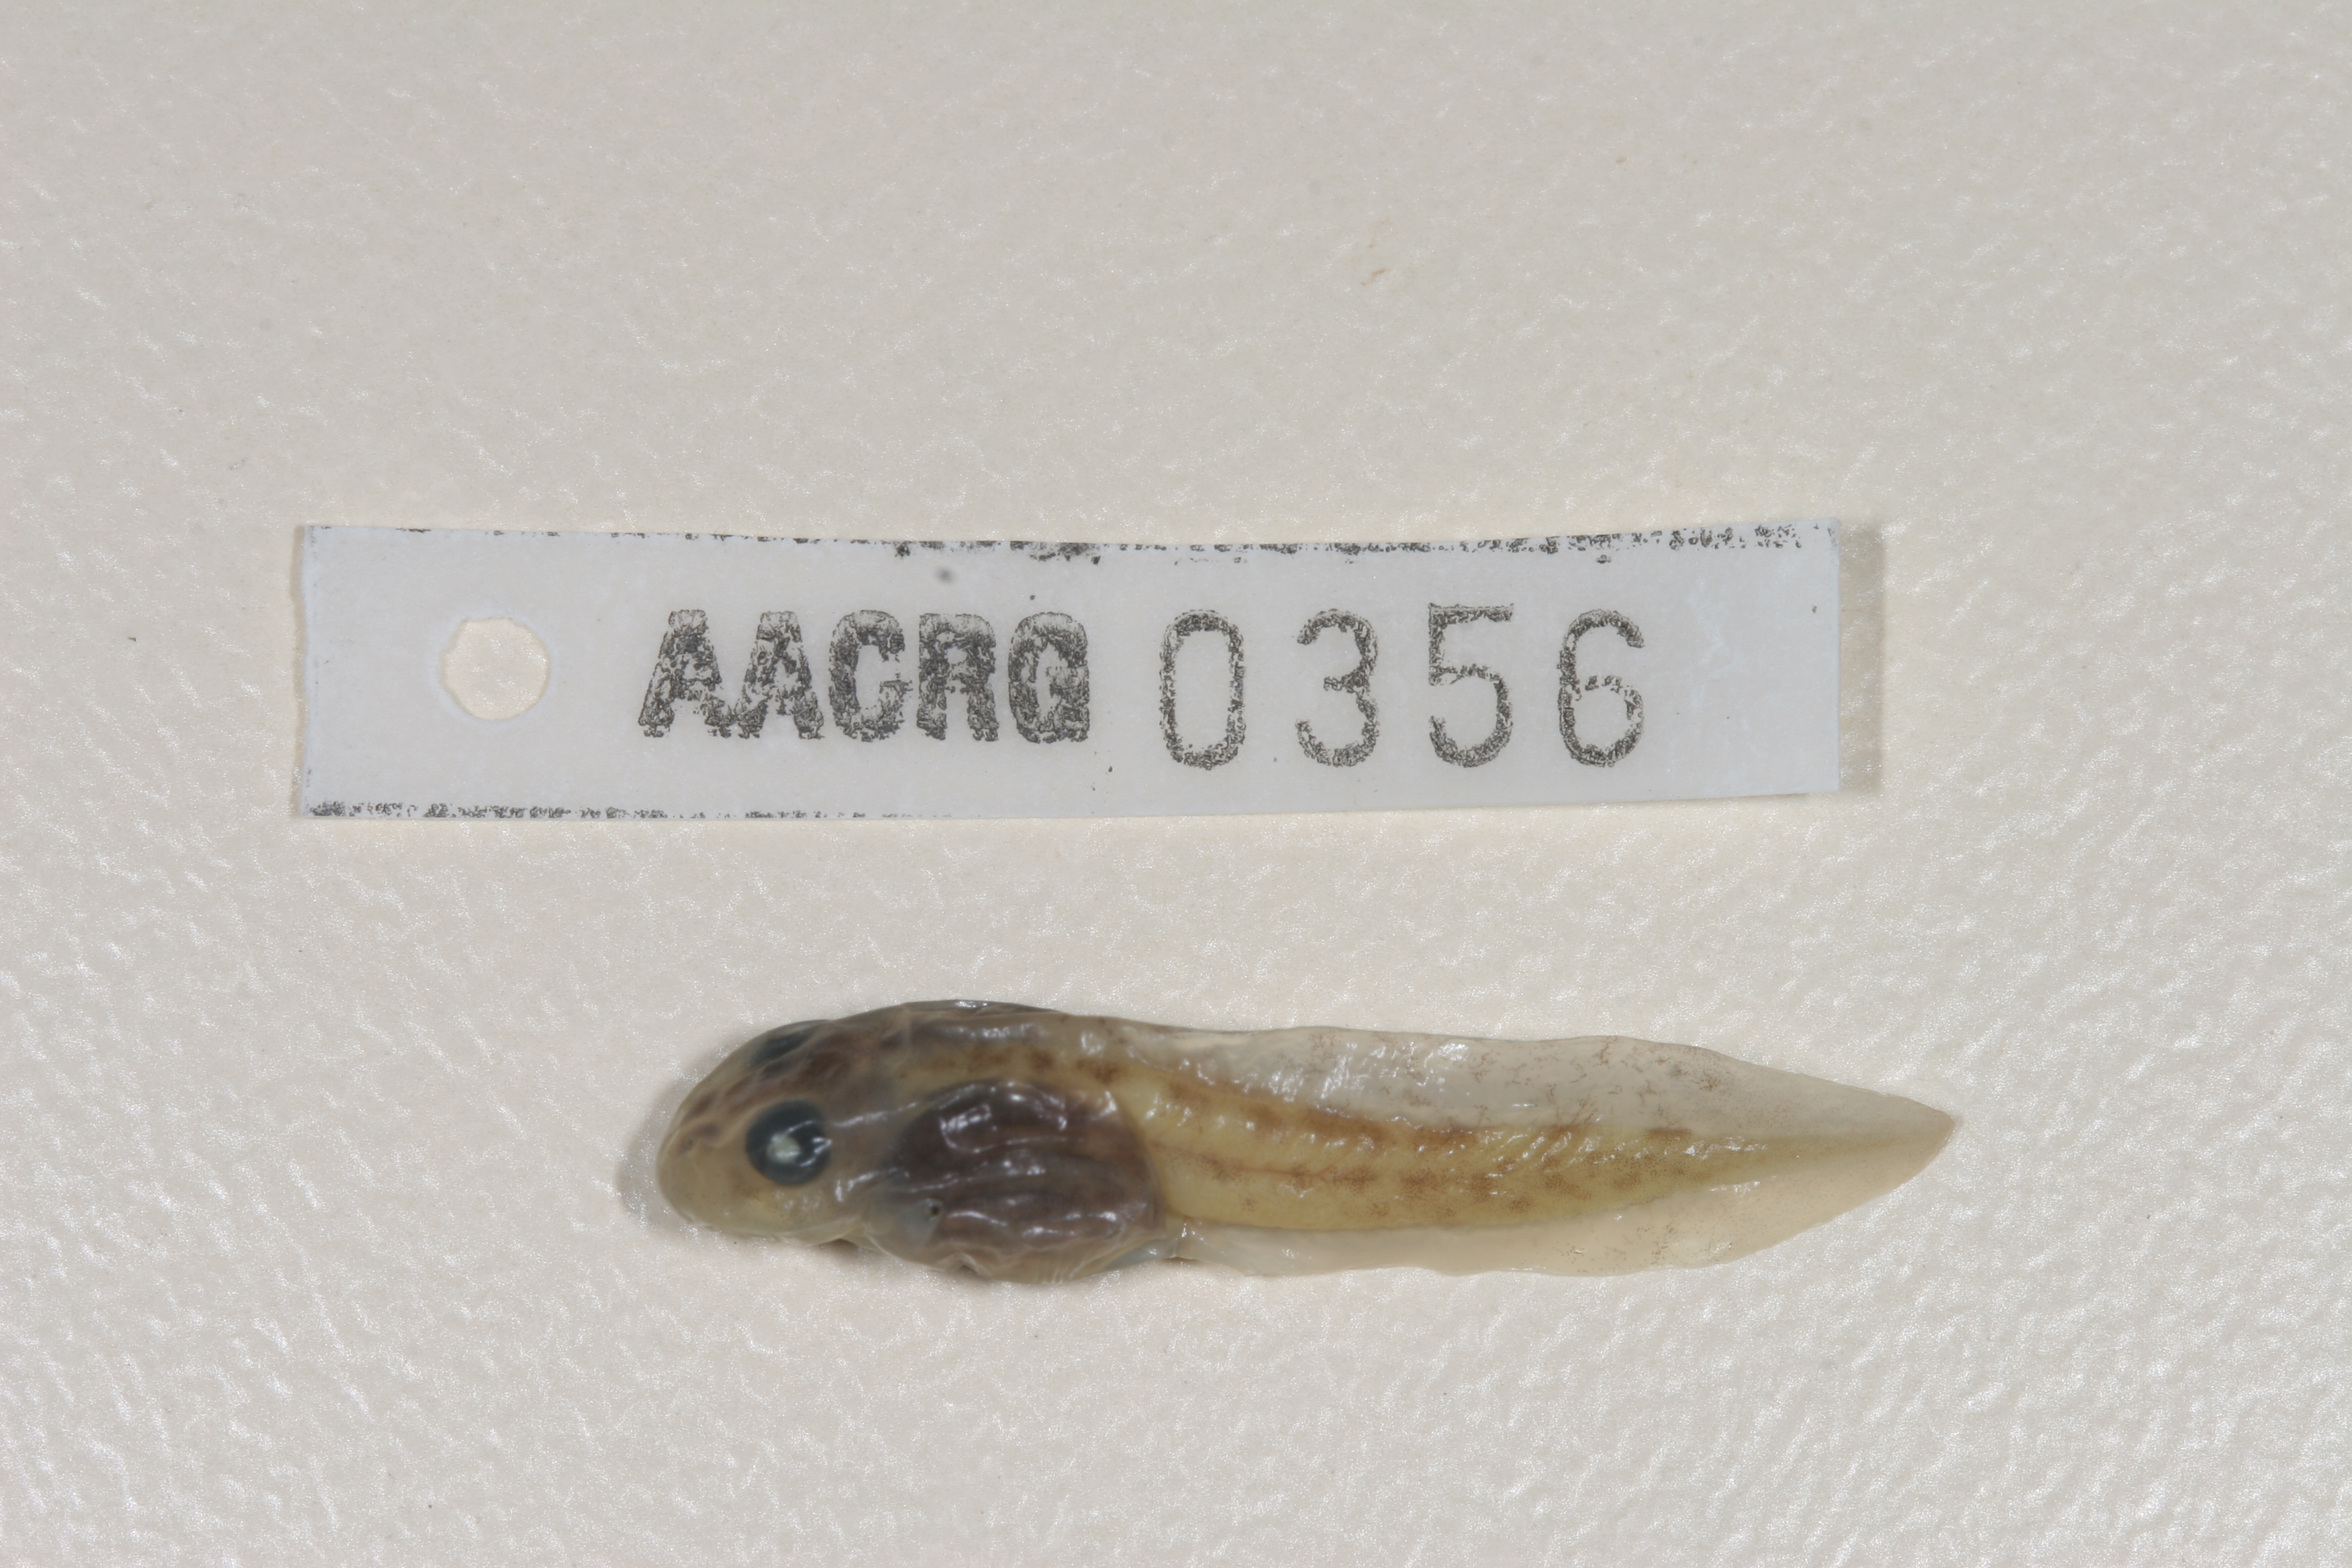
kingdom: Animalia
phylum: Chordata
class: Amphibia
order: Anura
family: Pyxicephalidae
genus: Tomopterna
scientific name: Tomopterna cryptotis
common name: Catequero bullfrog
